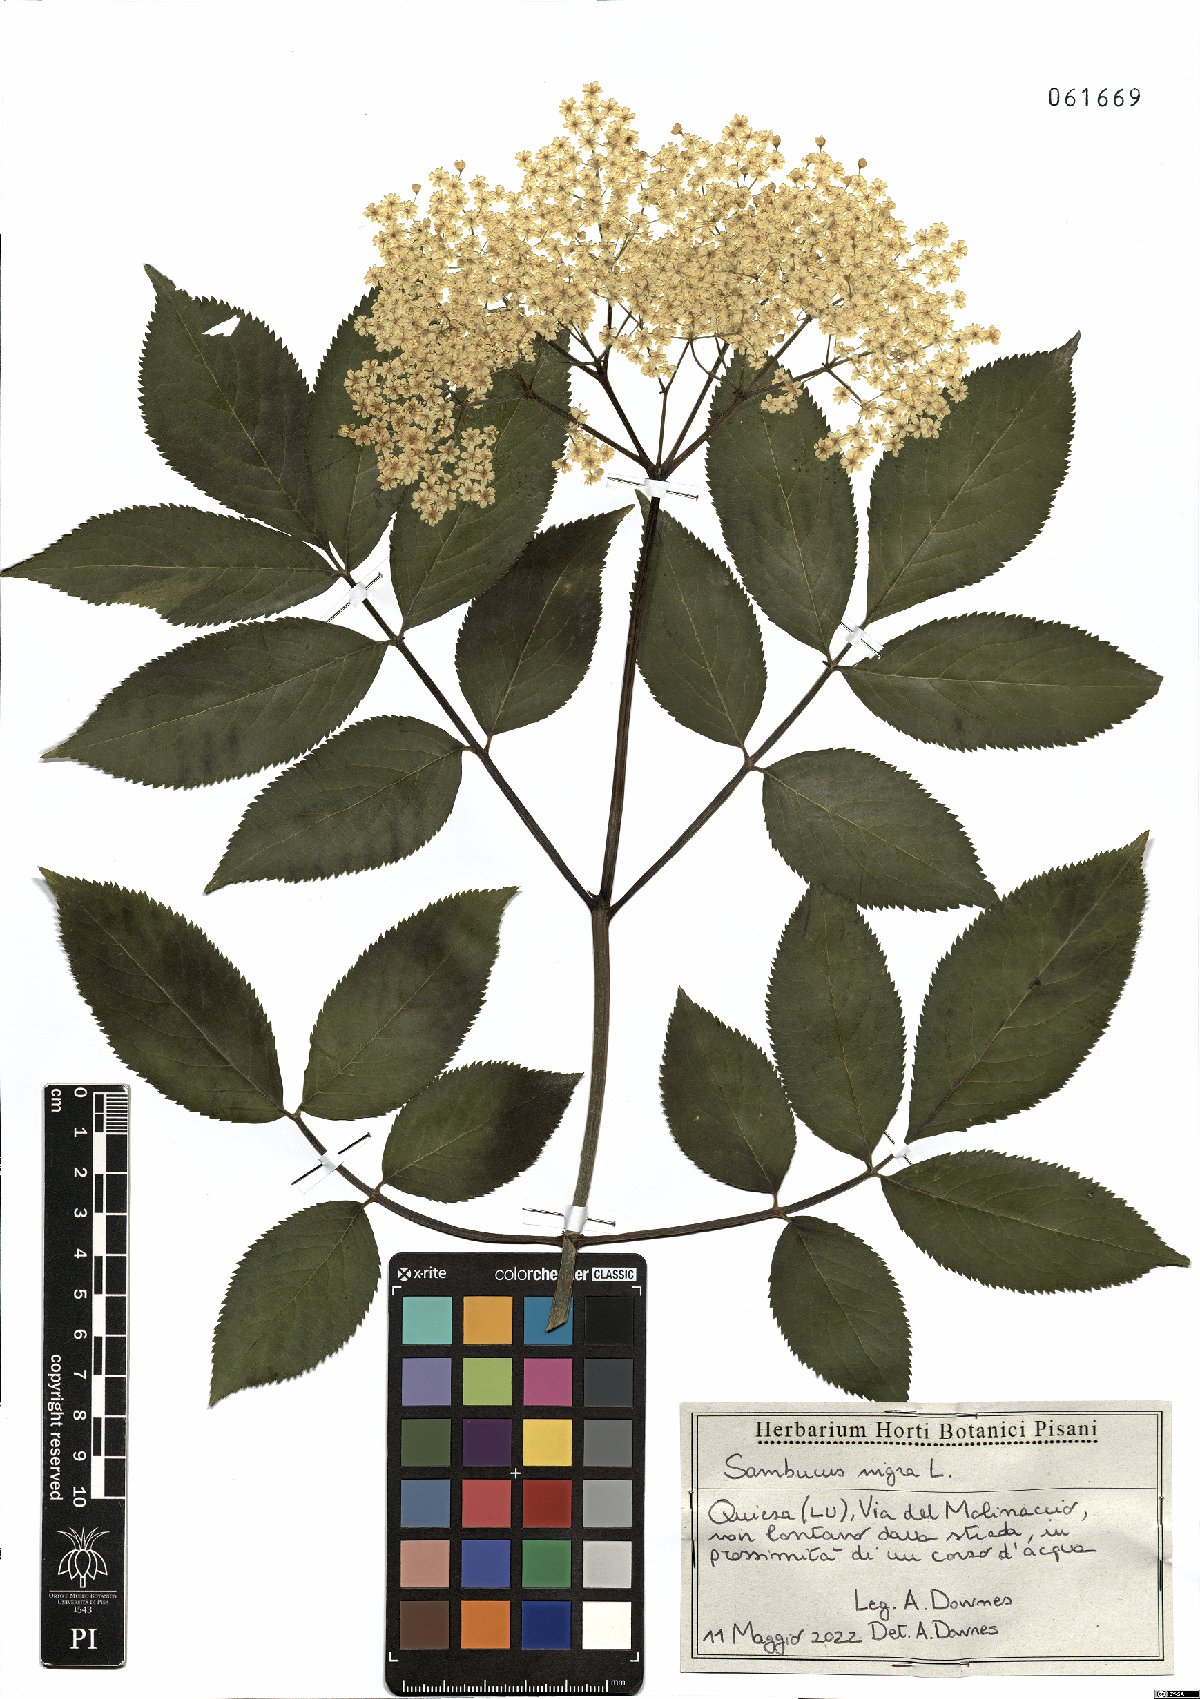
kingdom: Plantae
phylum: Tracheophyta
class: Magnoliopsida
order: Dipsacales
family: Viburnaceae
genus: Sambucus
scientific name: Sambucus nigra
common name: Elder
